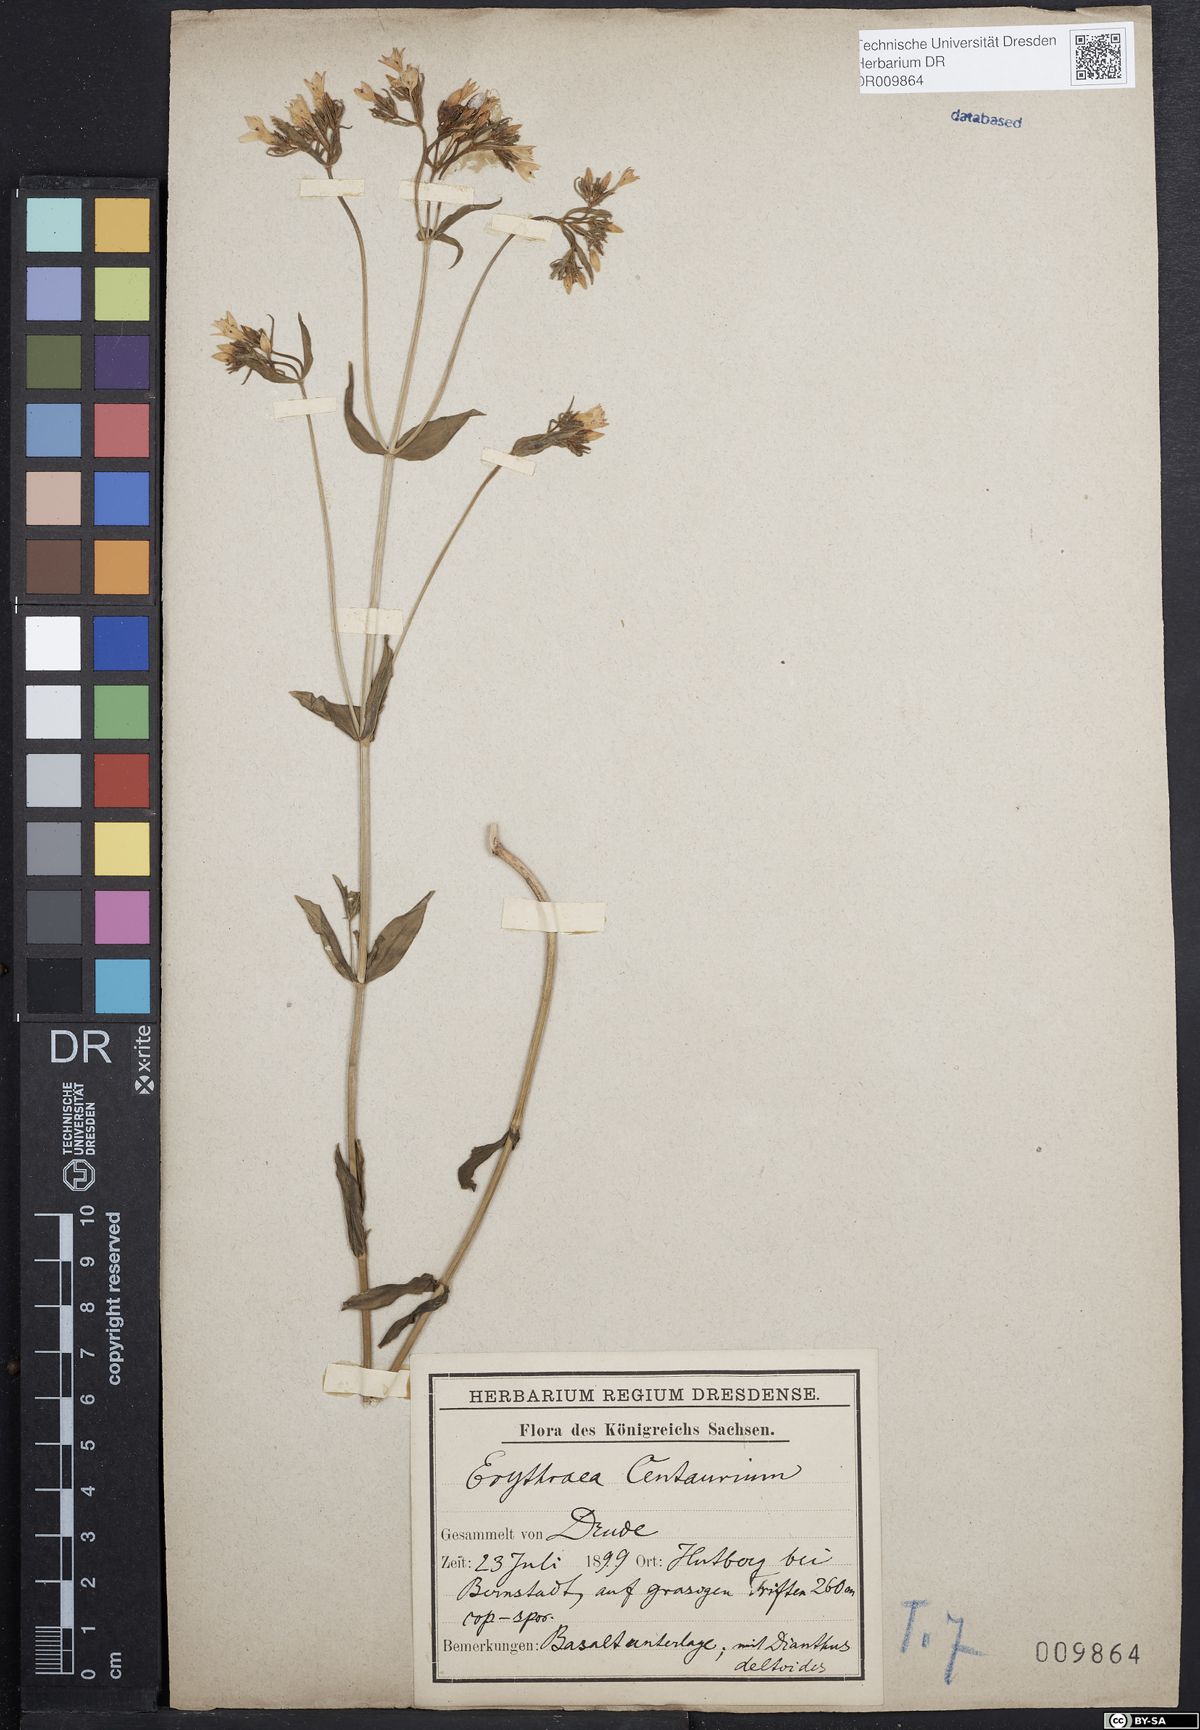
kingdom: Plantae
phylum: Tracheophyta
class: Magnoliopsida
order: Gentianales
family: Gentianaceae
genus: Centaurium
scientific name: Centaurium erythraea
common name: Common centaury
